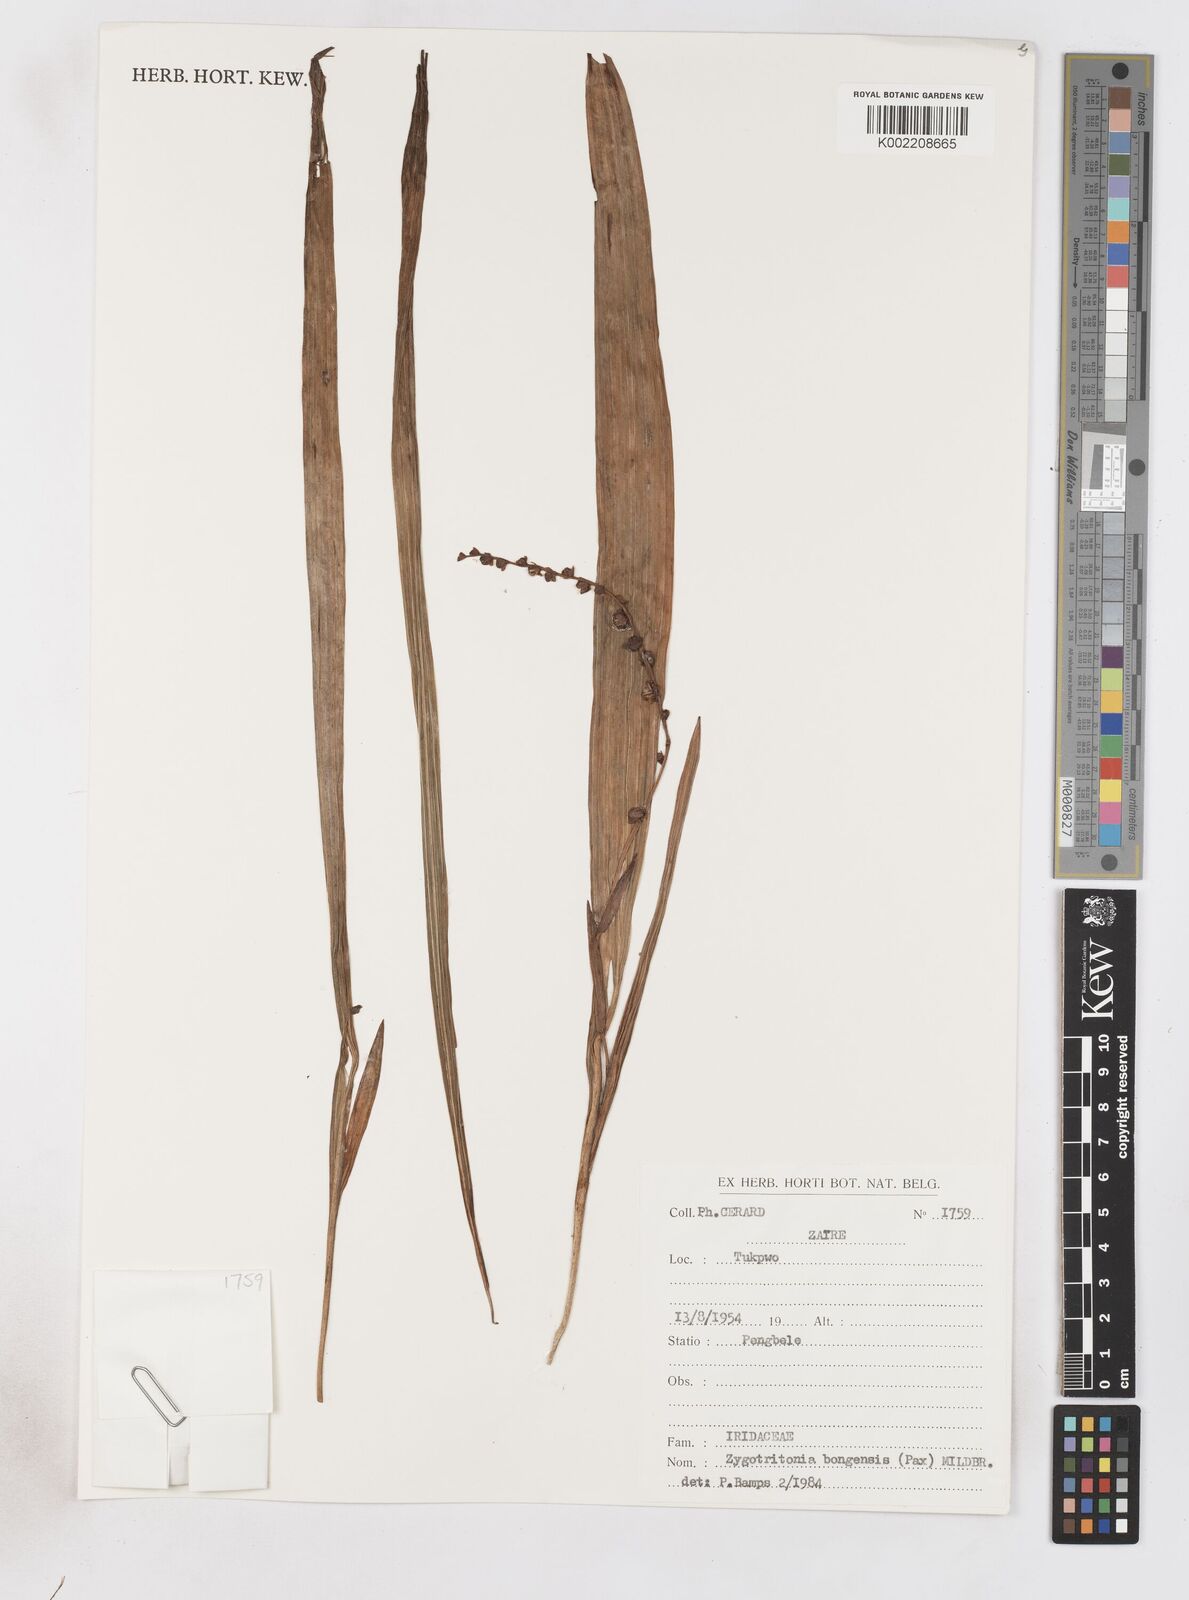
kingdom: Plantae
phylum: Tracheophyta
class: Liliopsida
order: Asparagales
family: Iridaceae
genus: Zygotritonia
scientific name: Zygotritonia bongensis
